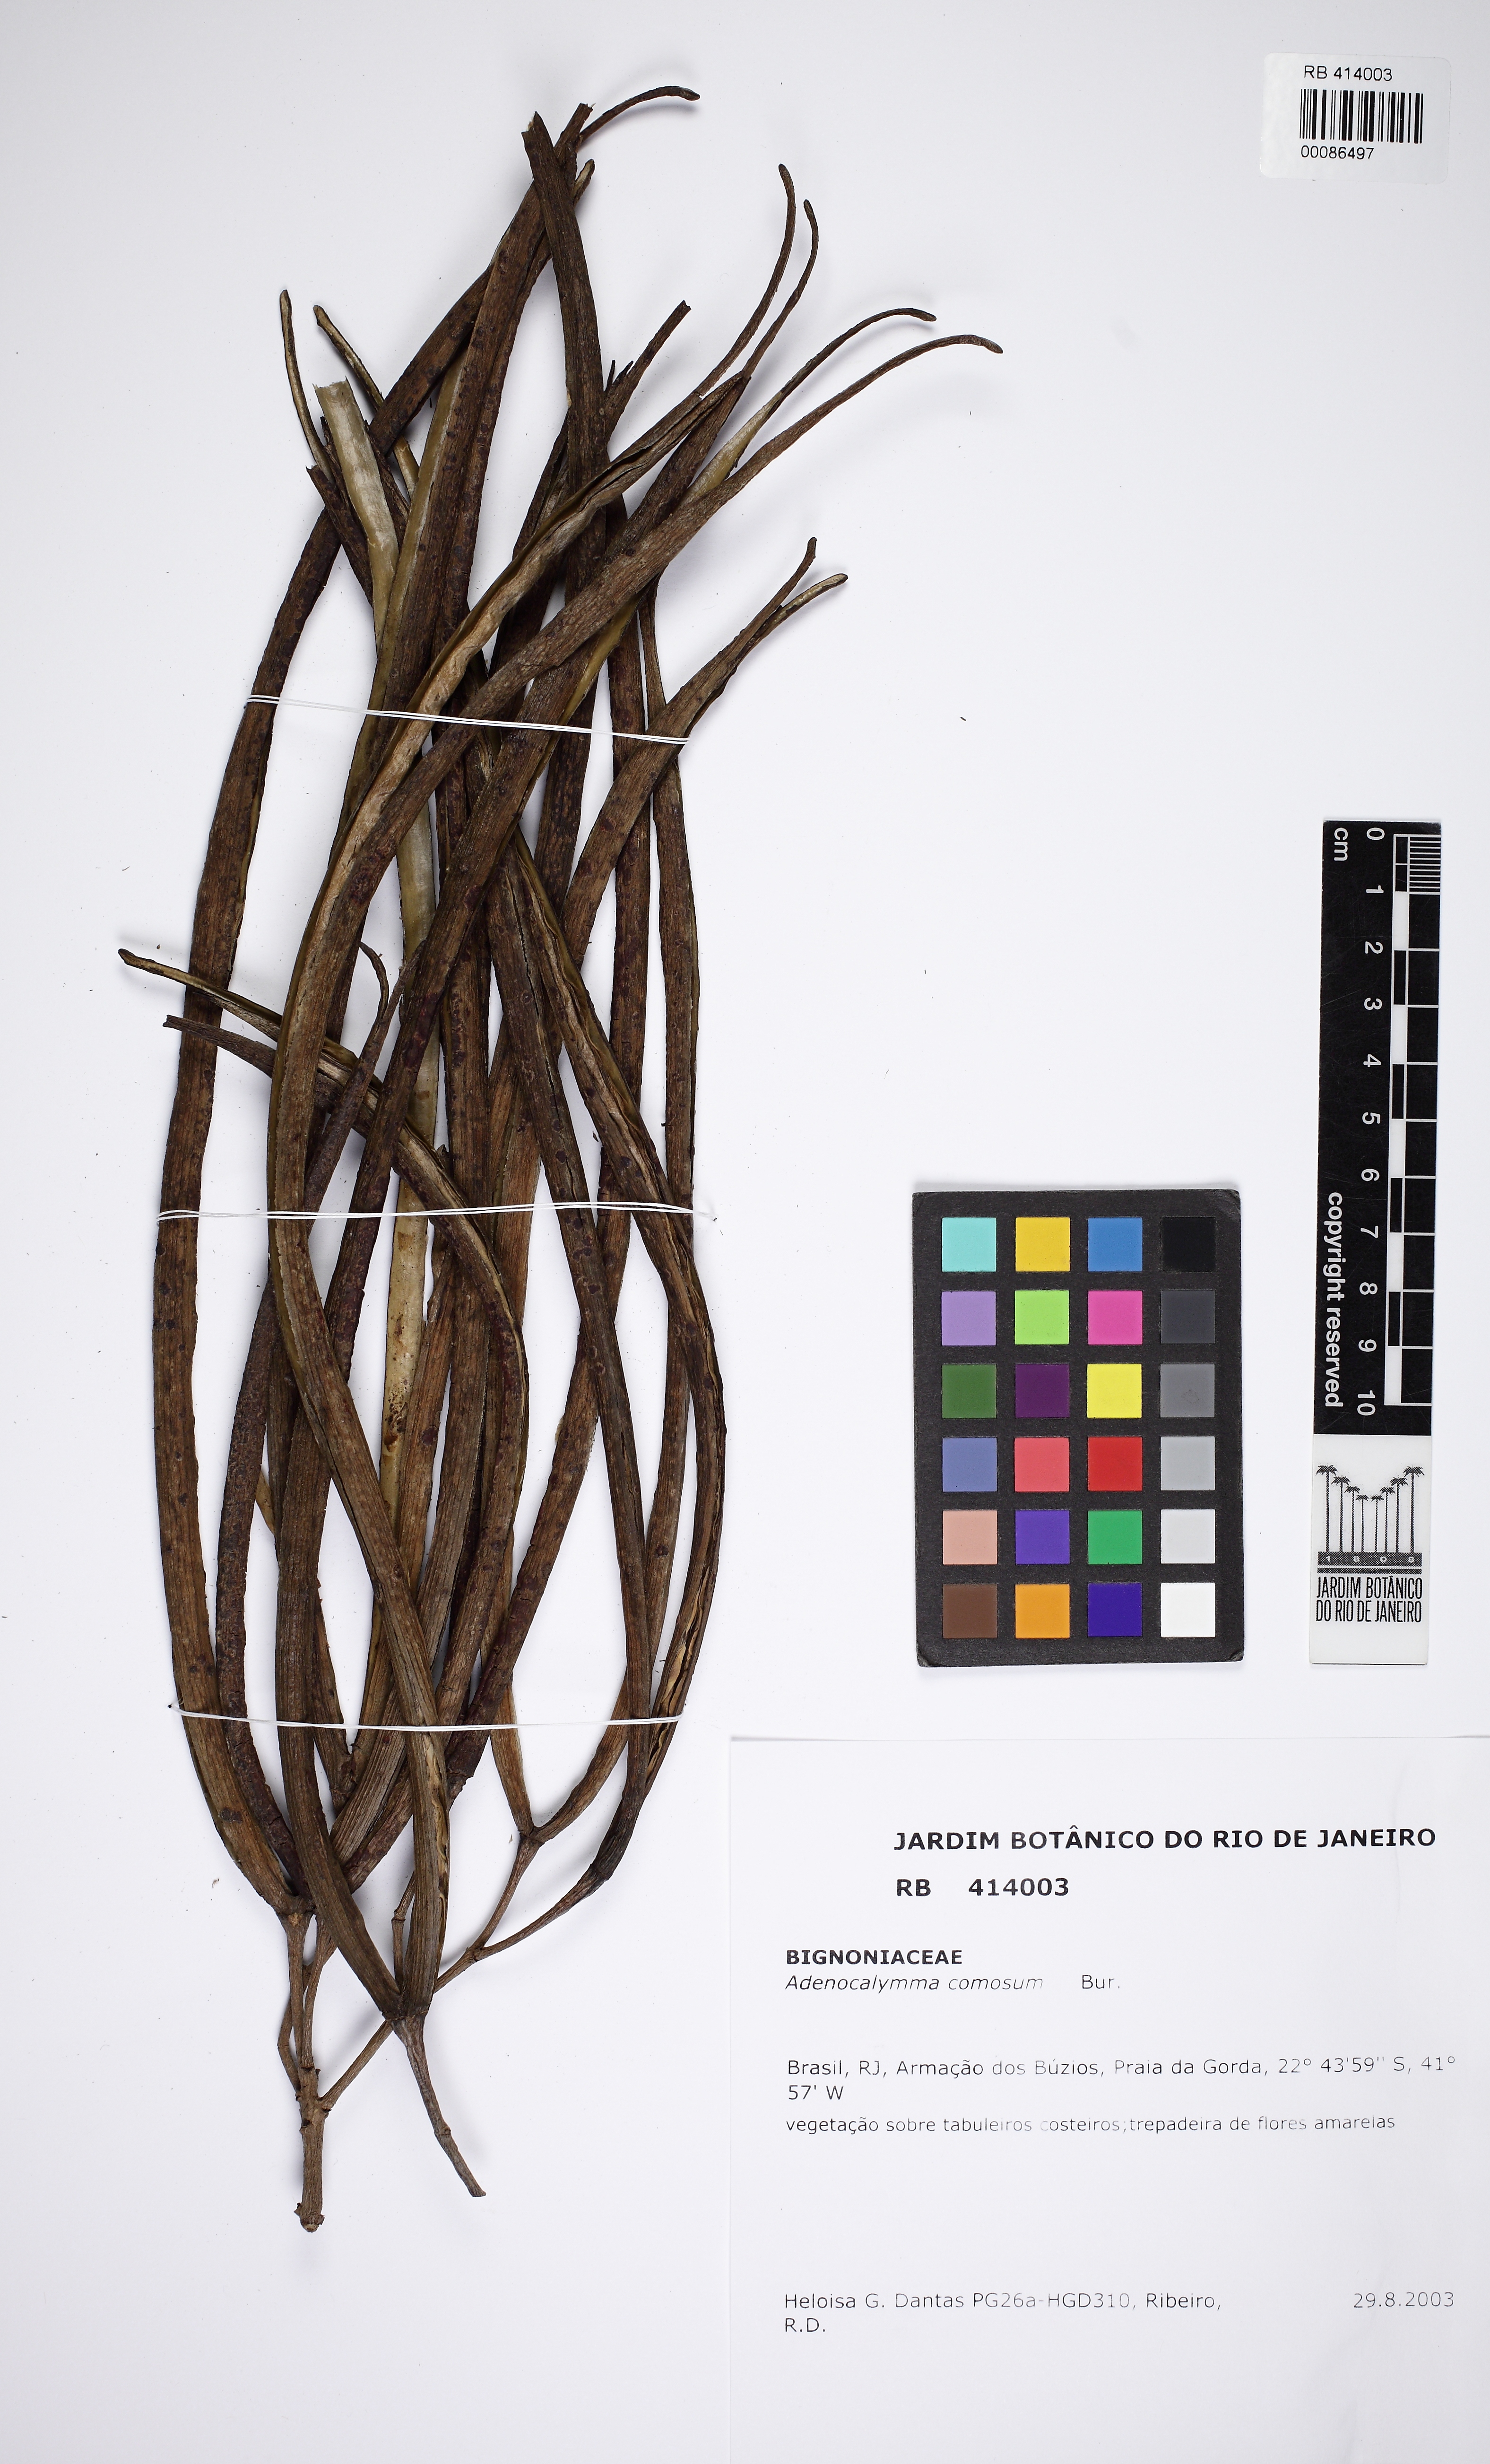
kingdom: Plantae
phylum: Tracheophyta
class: Magnoliopsida
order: Lamiales
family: Bignoniaceae
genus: Adenocalymma
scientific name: Adenocalymma acutissimum
